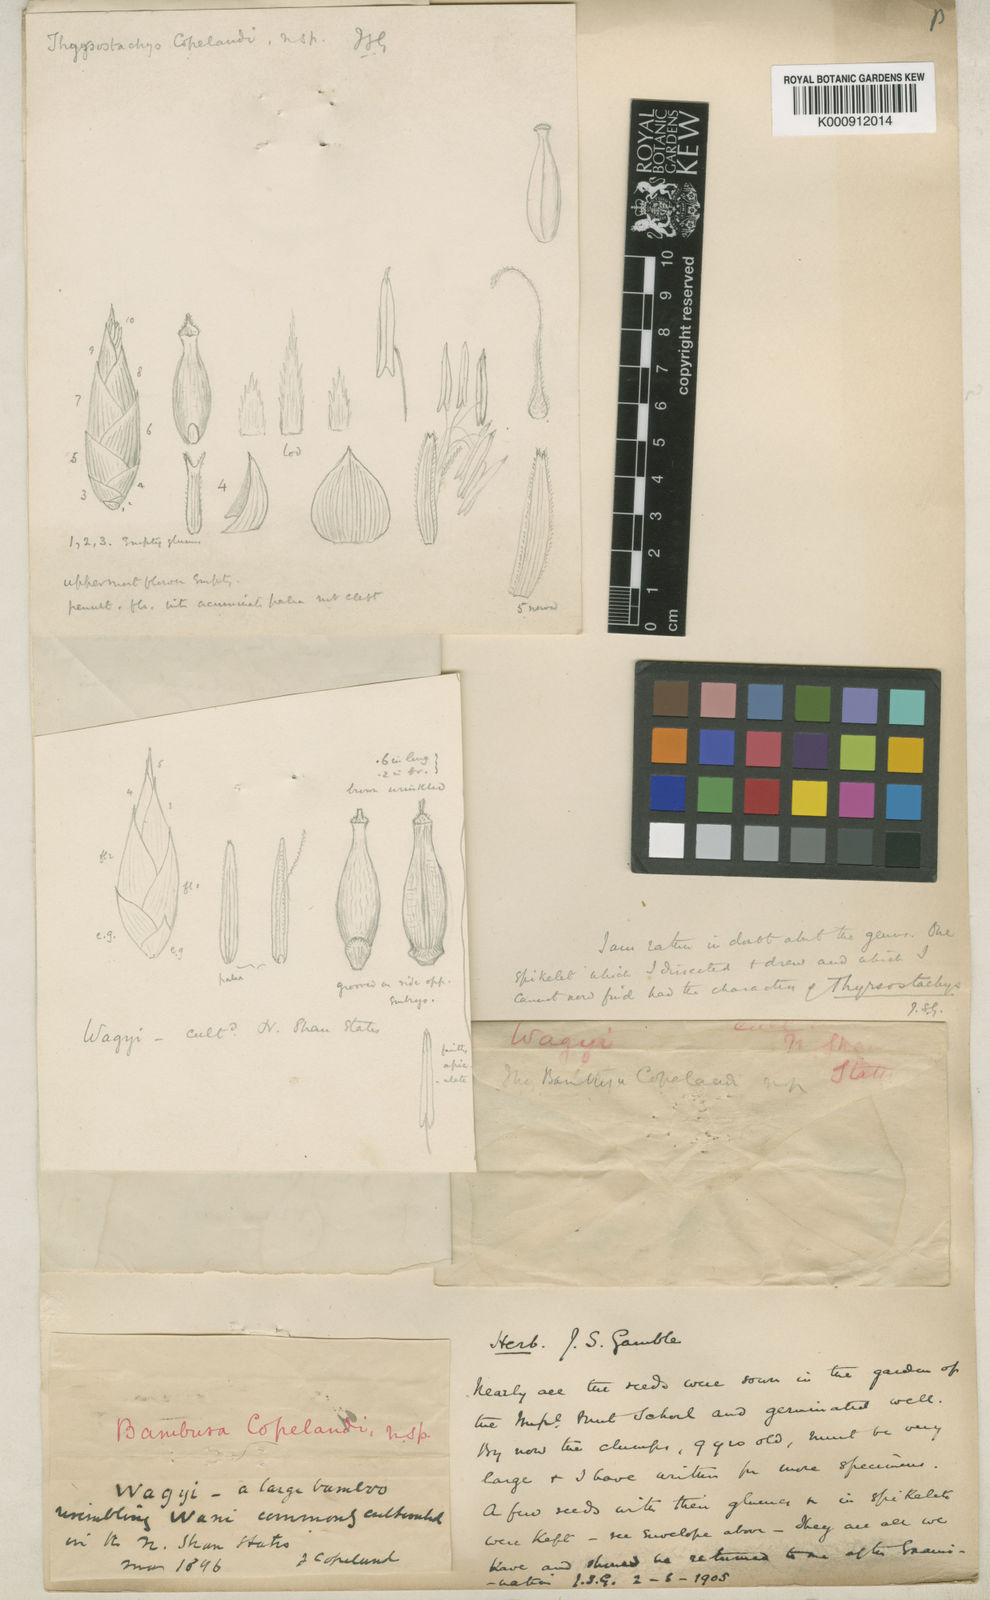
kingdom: Plantae
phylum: Tracheophyta
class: Liliopsida
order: Poales
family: Poaceae
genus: Bambusa
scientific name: Bambusa copelandii
